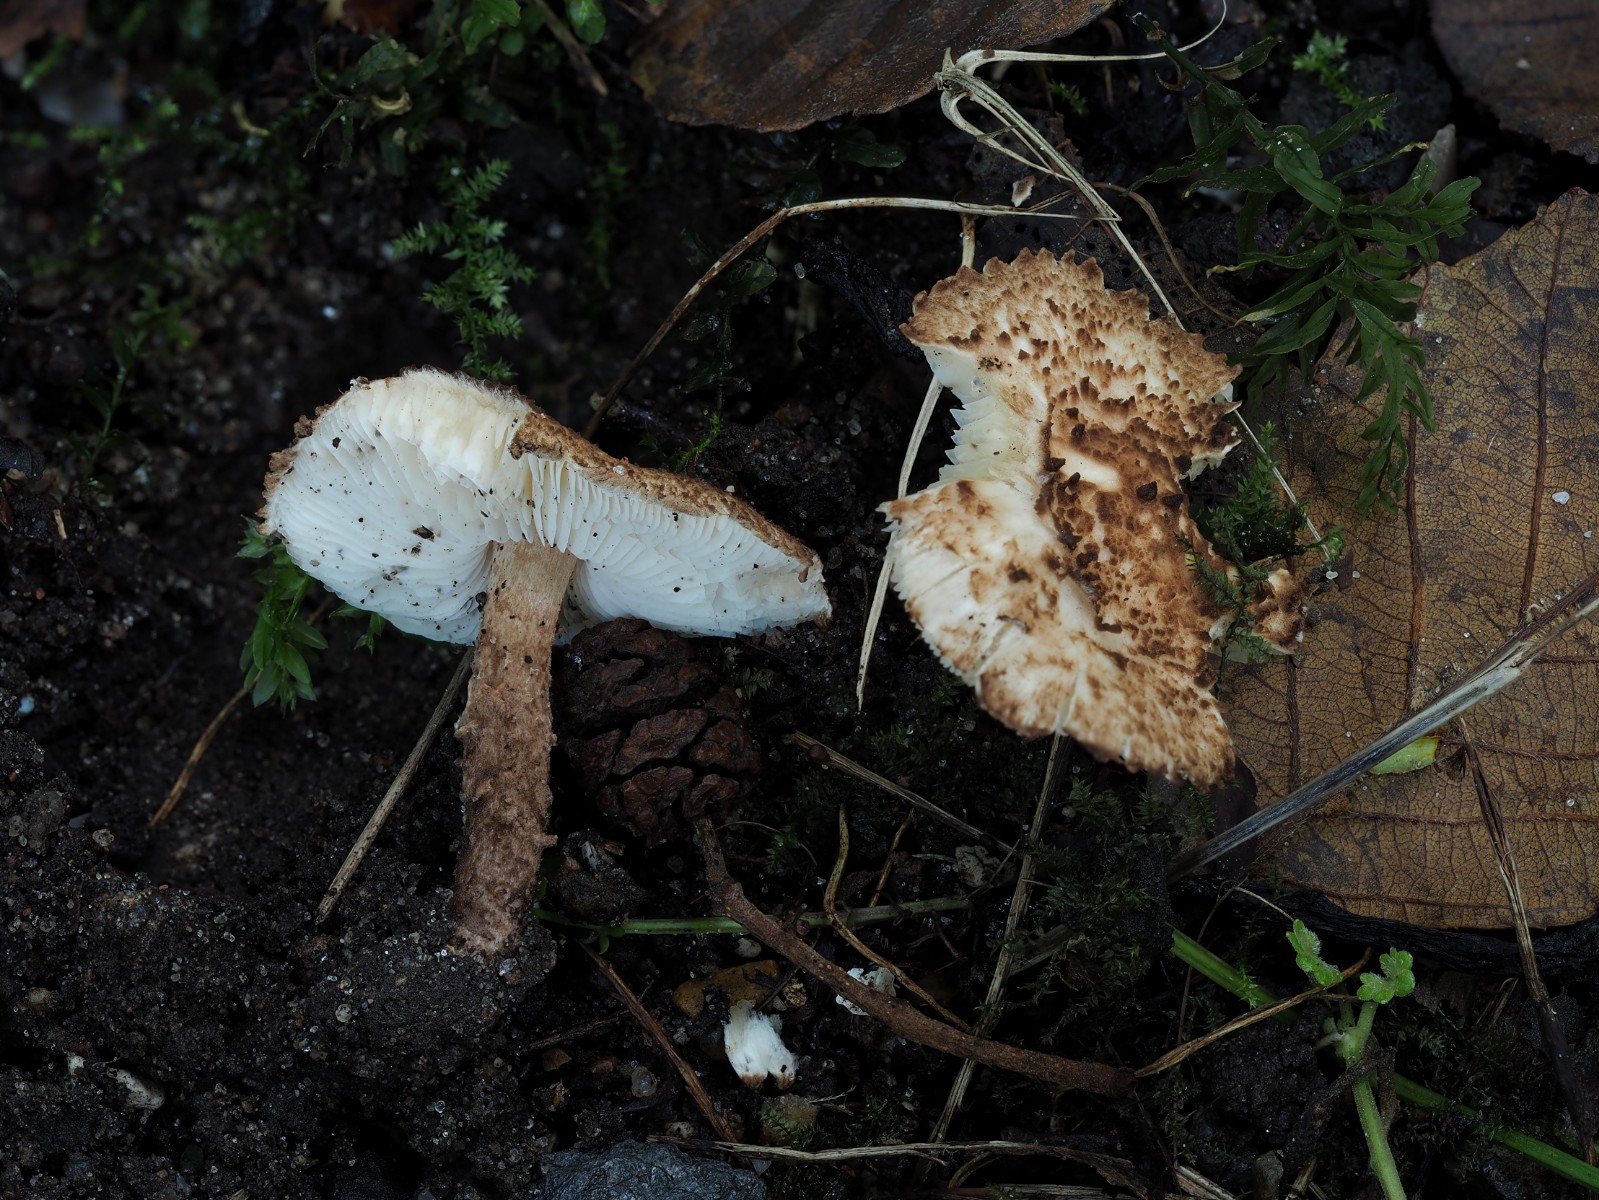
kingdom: Fungi
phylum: Basidiomycota
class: Agaricomycetes
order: Agaricales
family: Agaricaceae
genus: Echinoderma
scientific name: Echinoderma
